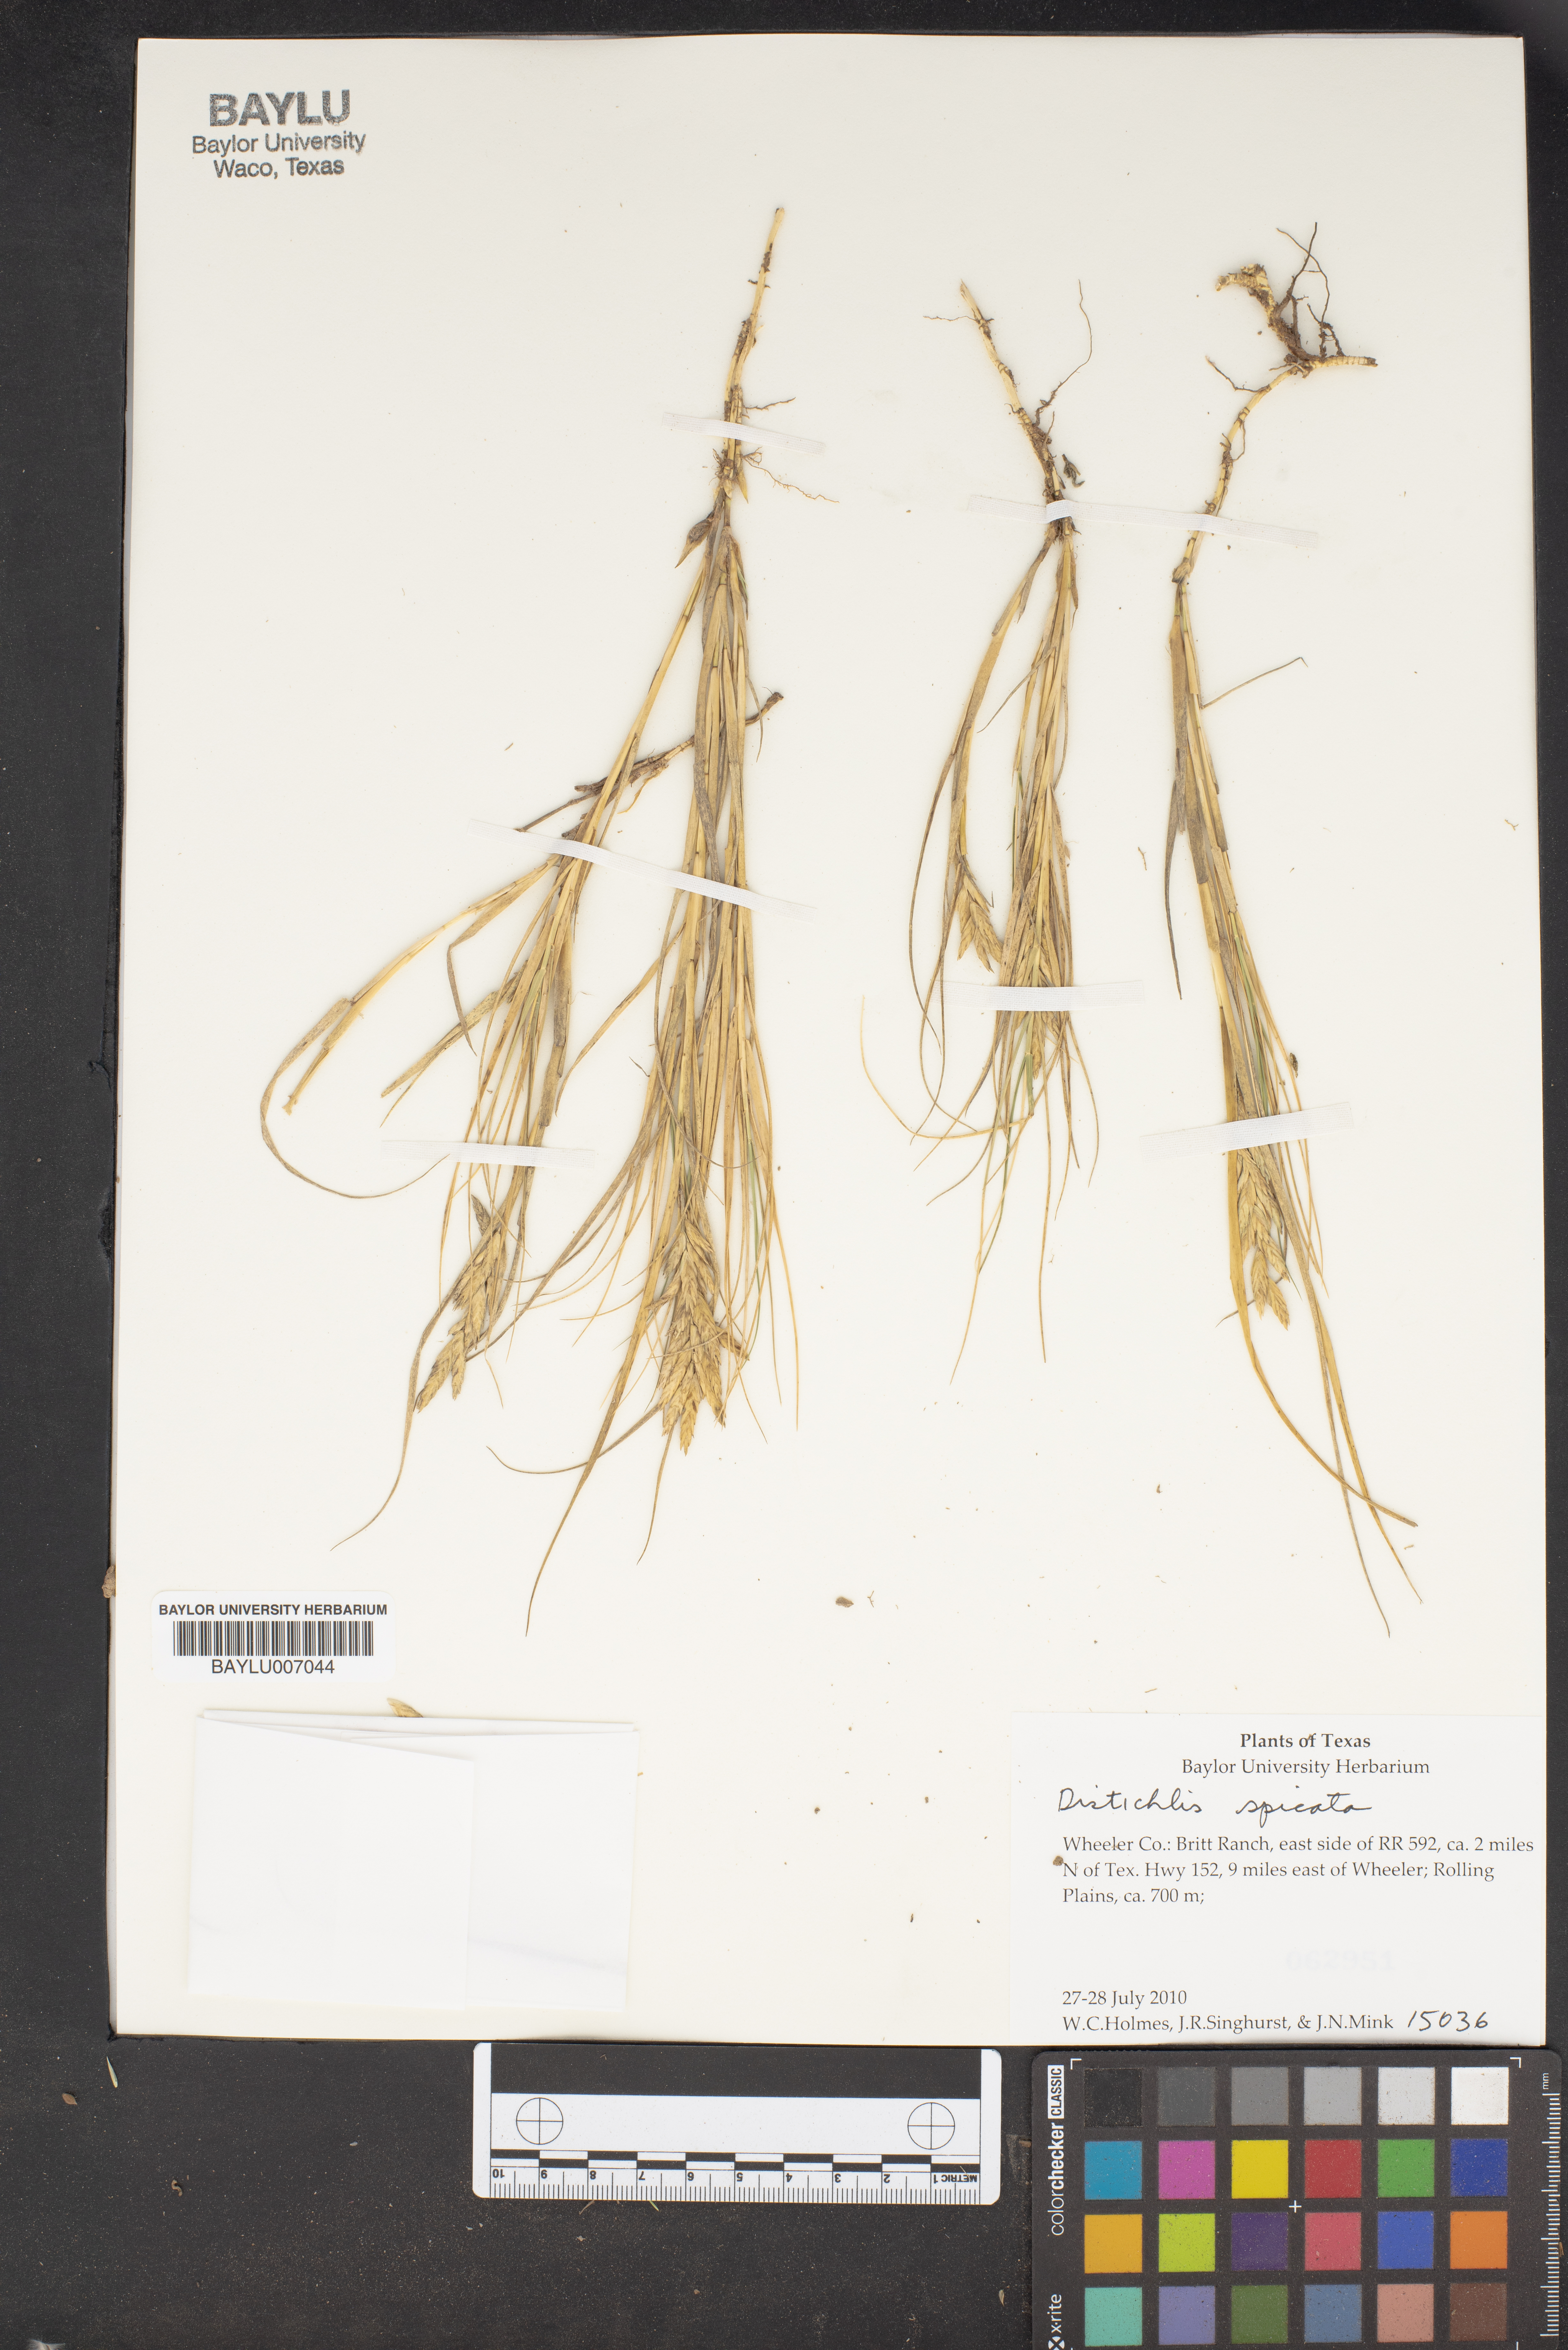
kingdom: Plantae
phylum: Tracheophyta
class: Liliopsida
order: Poales
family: Poaceae
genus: Distichlis
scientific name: Distichlis spicata
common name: Saltgrass
